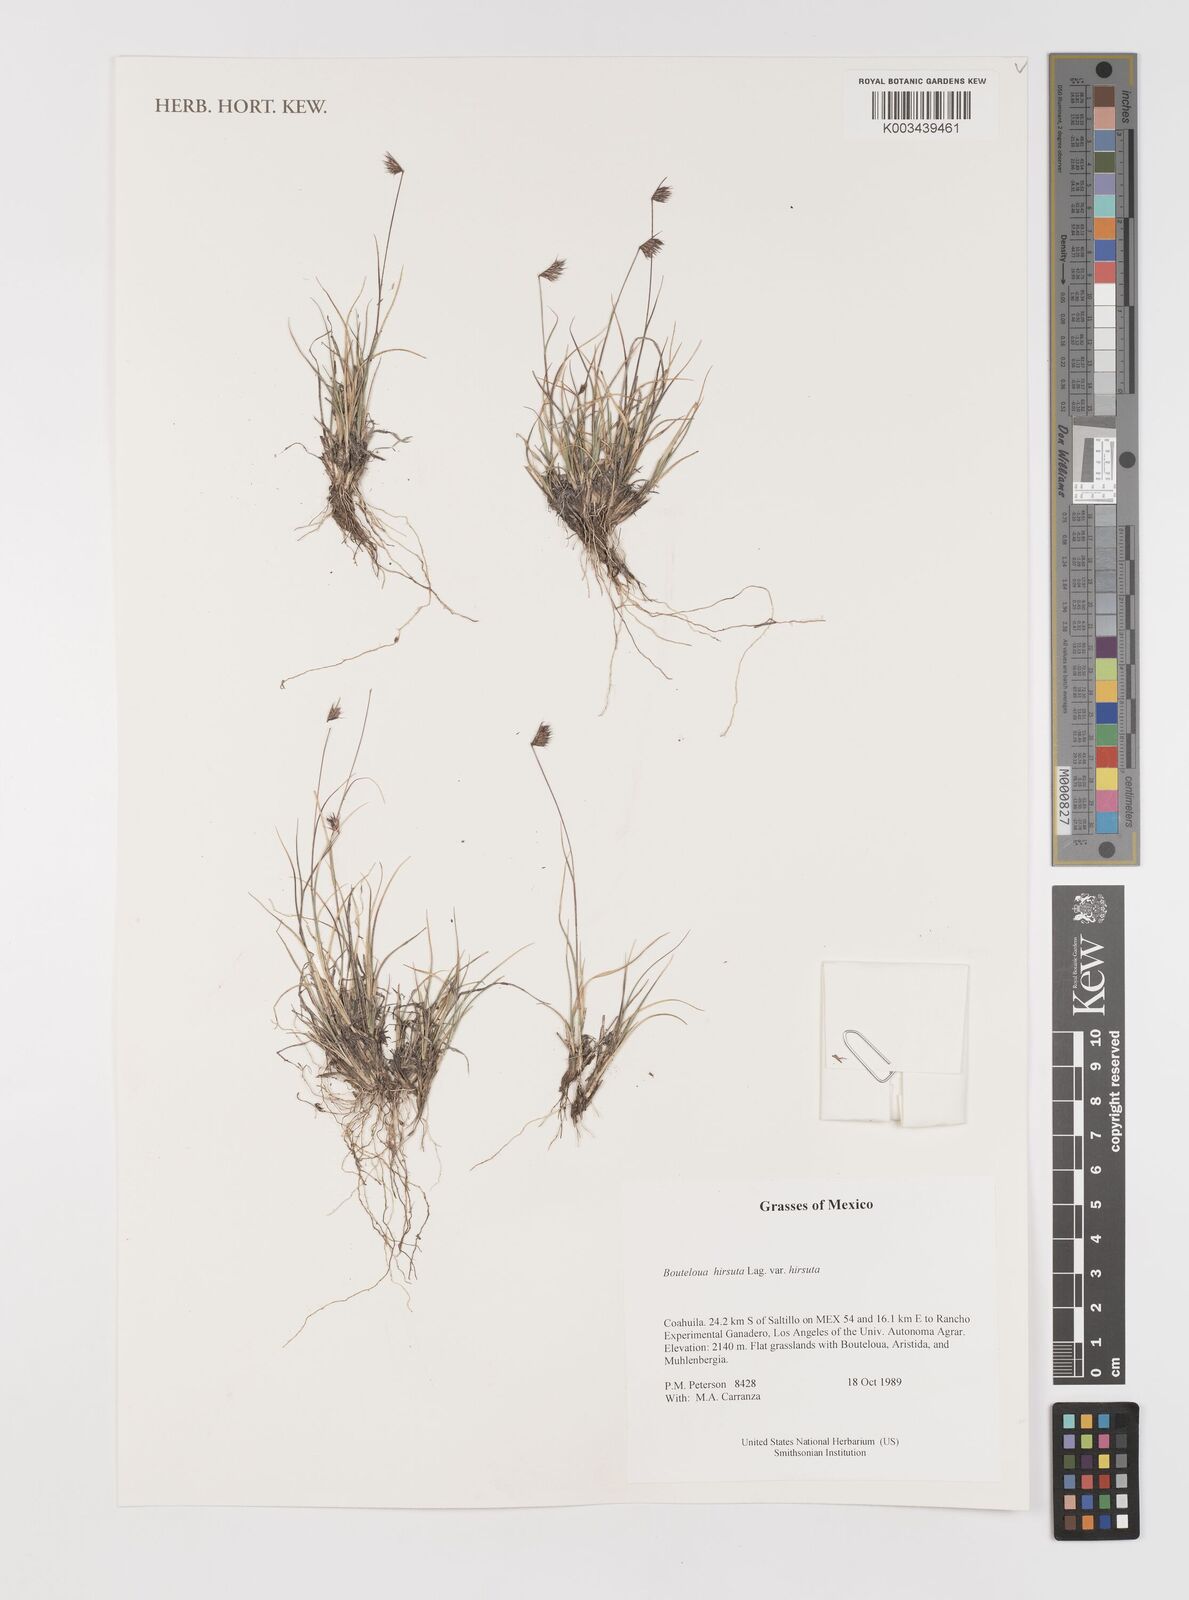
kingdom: Plantae
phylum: Tracheophyta
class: Liliopsida
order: Poales
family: Poaceae
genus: Bouteloua
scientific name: Bouteloua hirsuta
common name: Hairy grama
